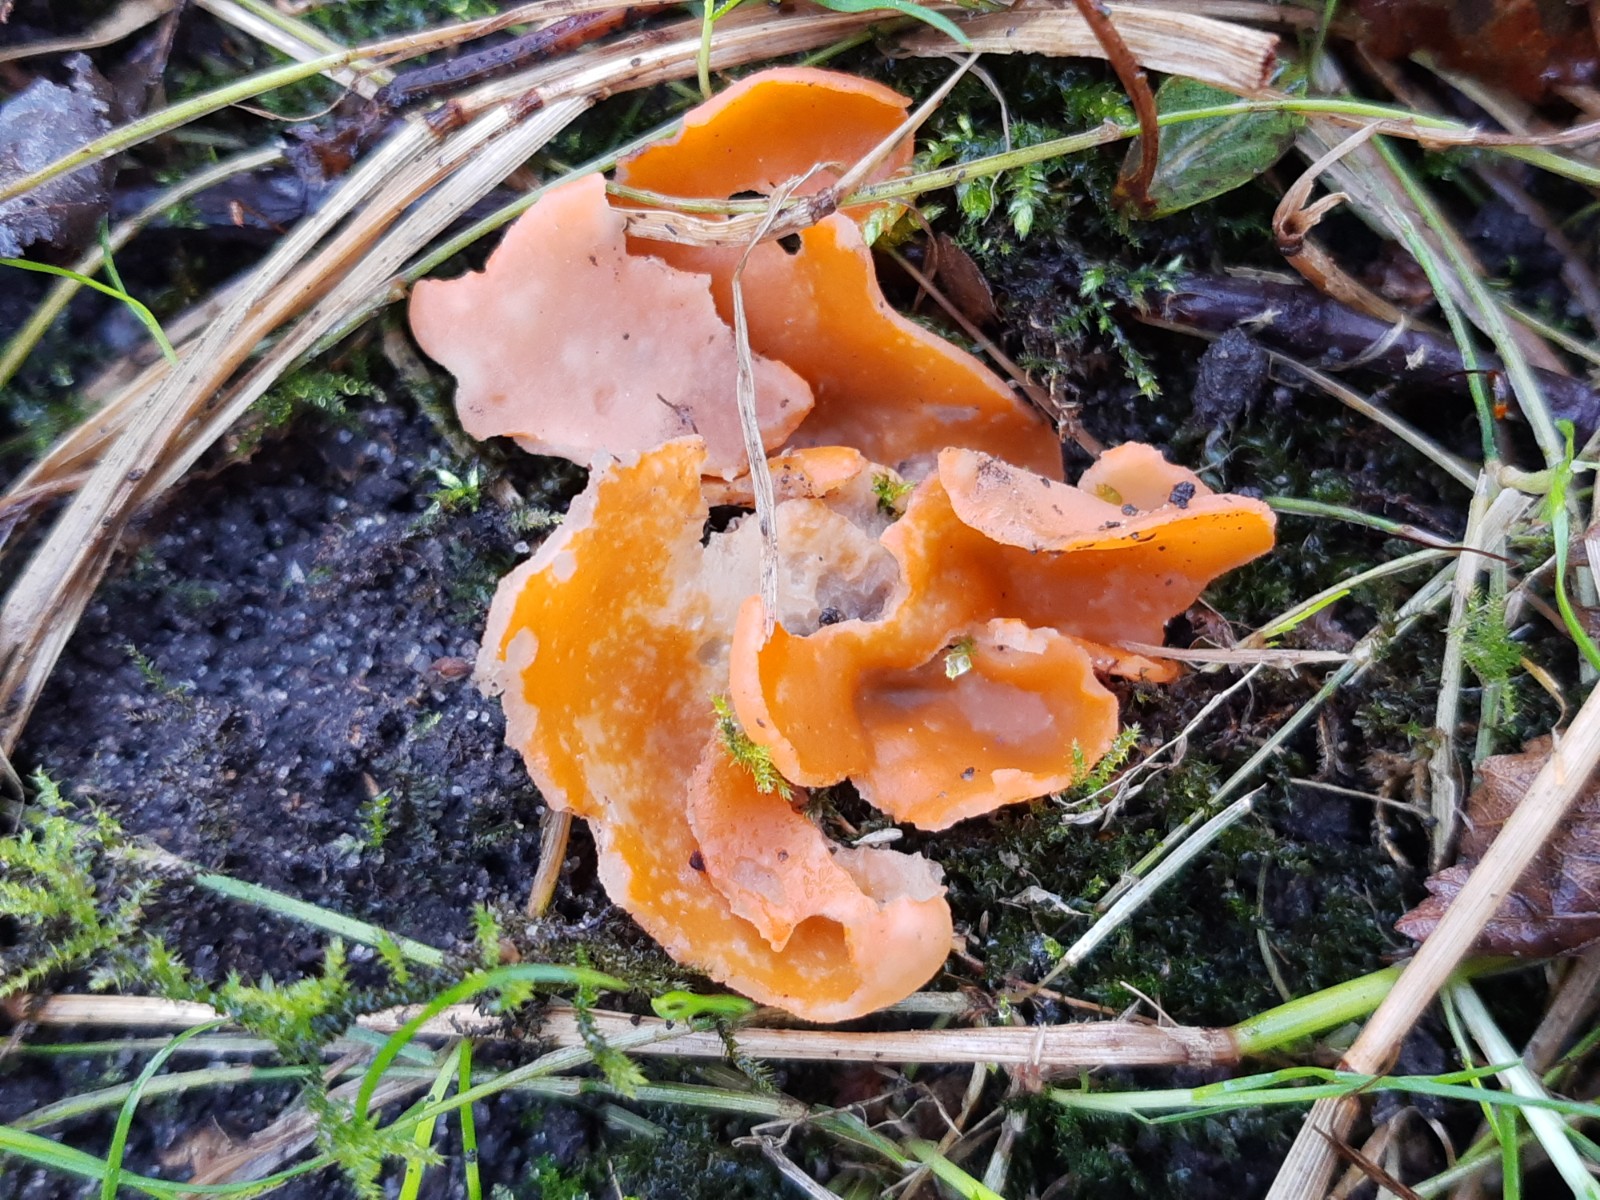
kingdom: Fungi
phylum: Ascomycota
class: Pezizomycetes
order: Pezizales
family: Pyronemataceae
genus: Aleuria
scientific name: Aleuria aurantia
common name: almindelig orangebæger
